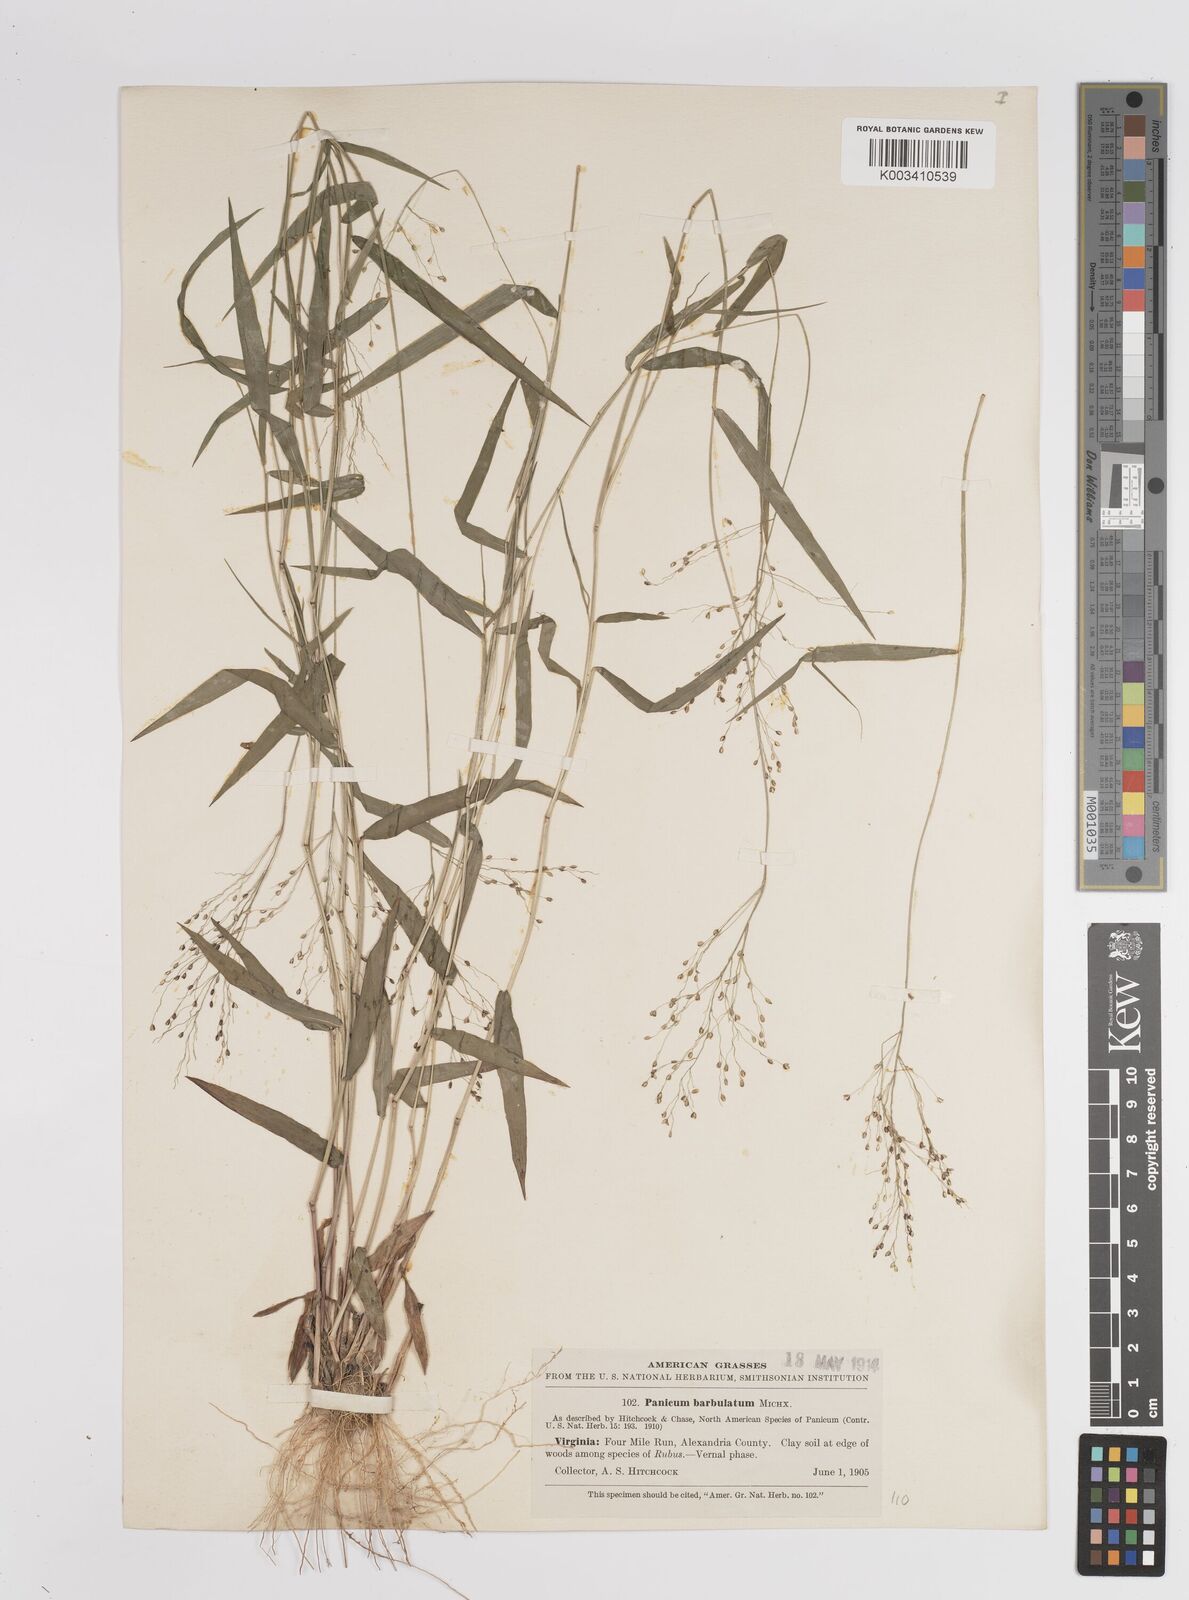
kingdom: Plantae
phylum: Tracheophyta
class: Liliopsida
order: Poales
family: Poaceae
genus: Dichanthelium
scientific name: Dichanthelium dichotomum
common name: Cypress panicgrass
